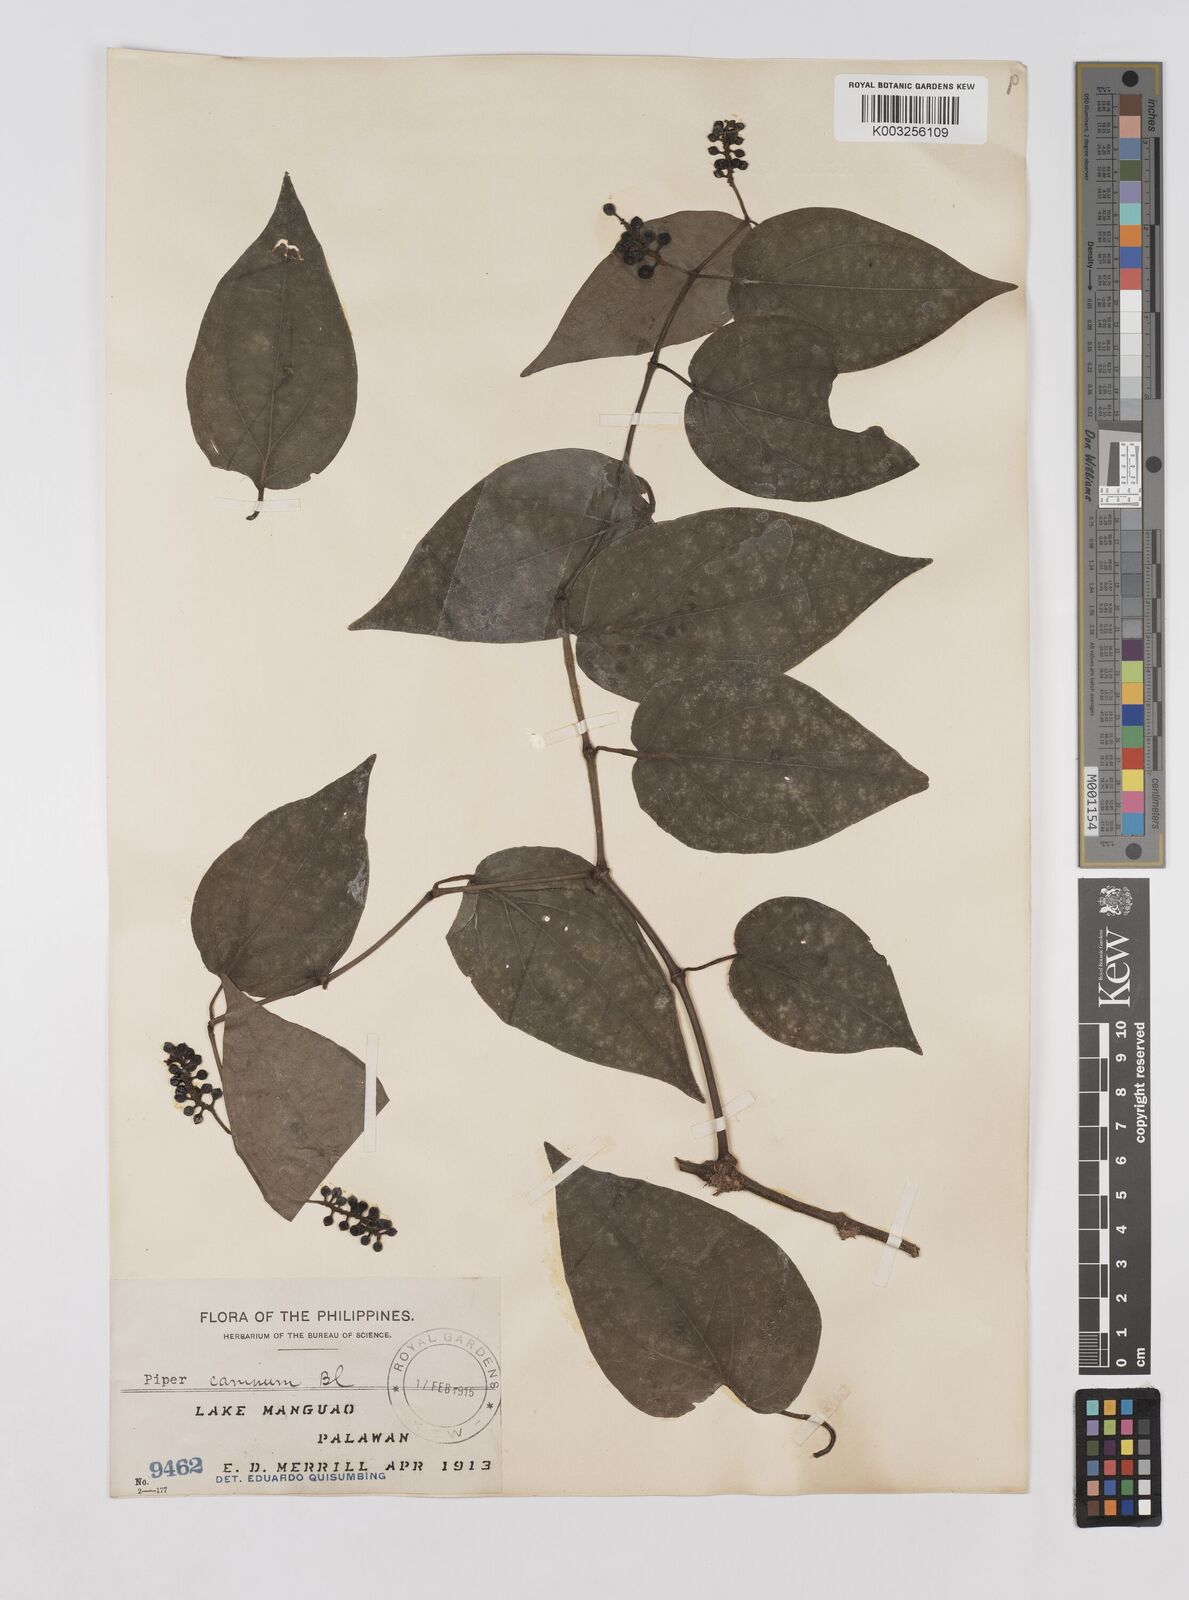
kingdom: Plantae
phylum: Tracheophyta
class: Magnoliopsida
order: Piperales
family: Piperaceae
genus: Piper
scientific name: Piper lanatum
